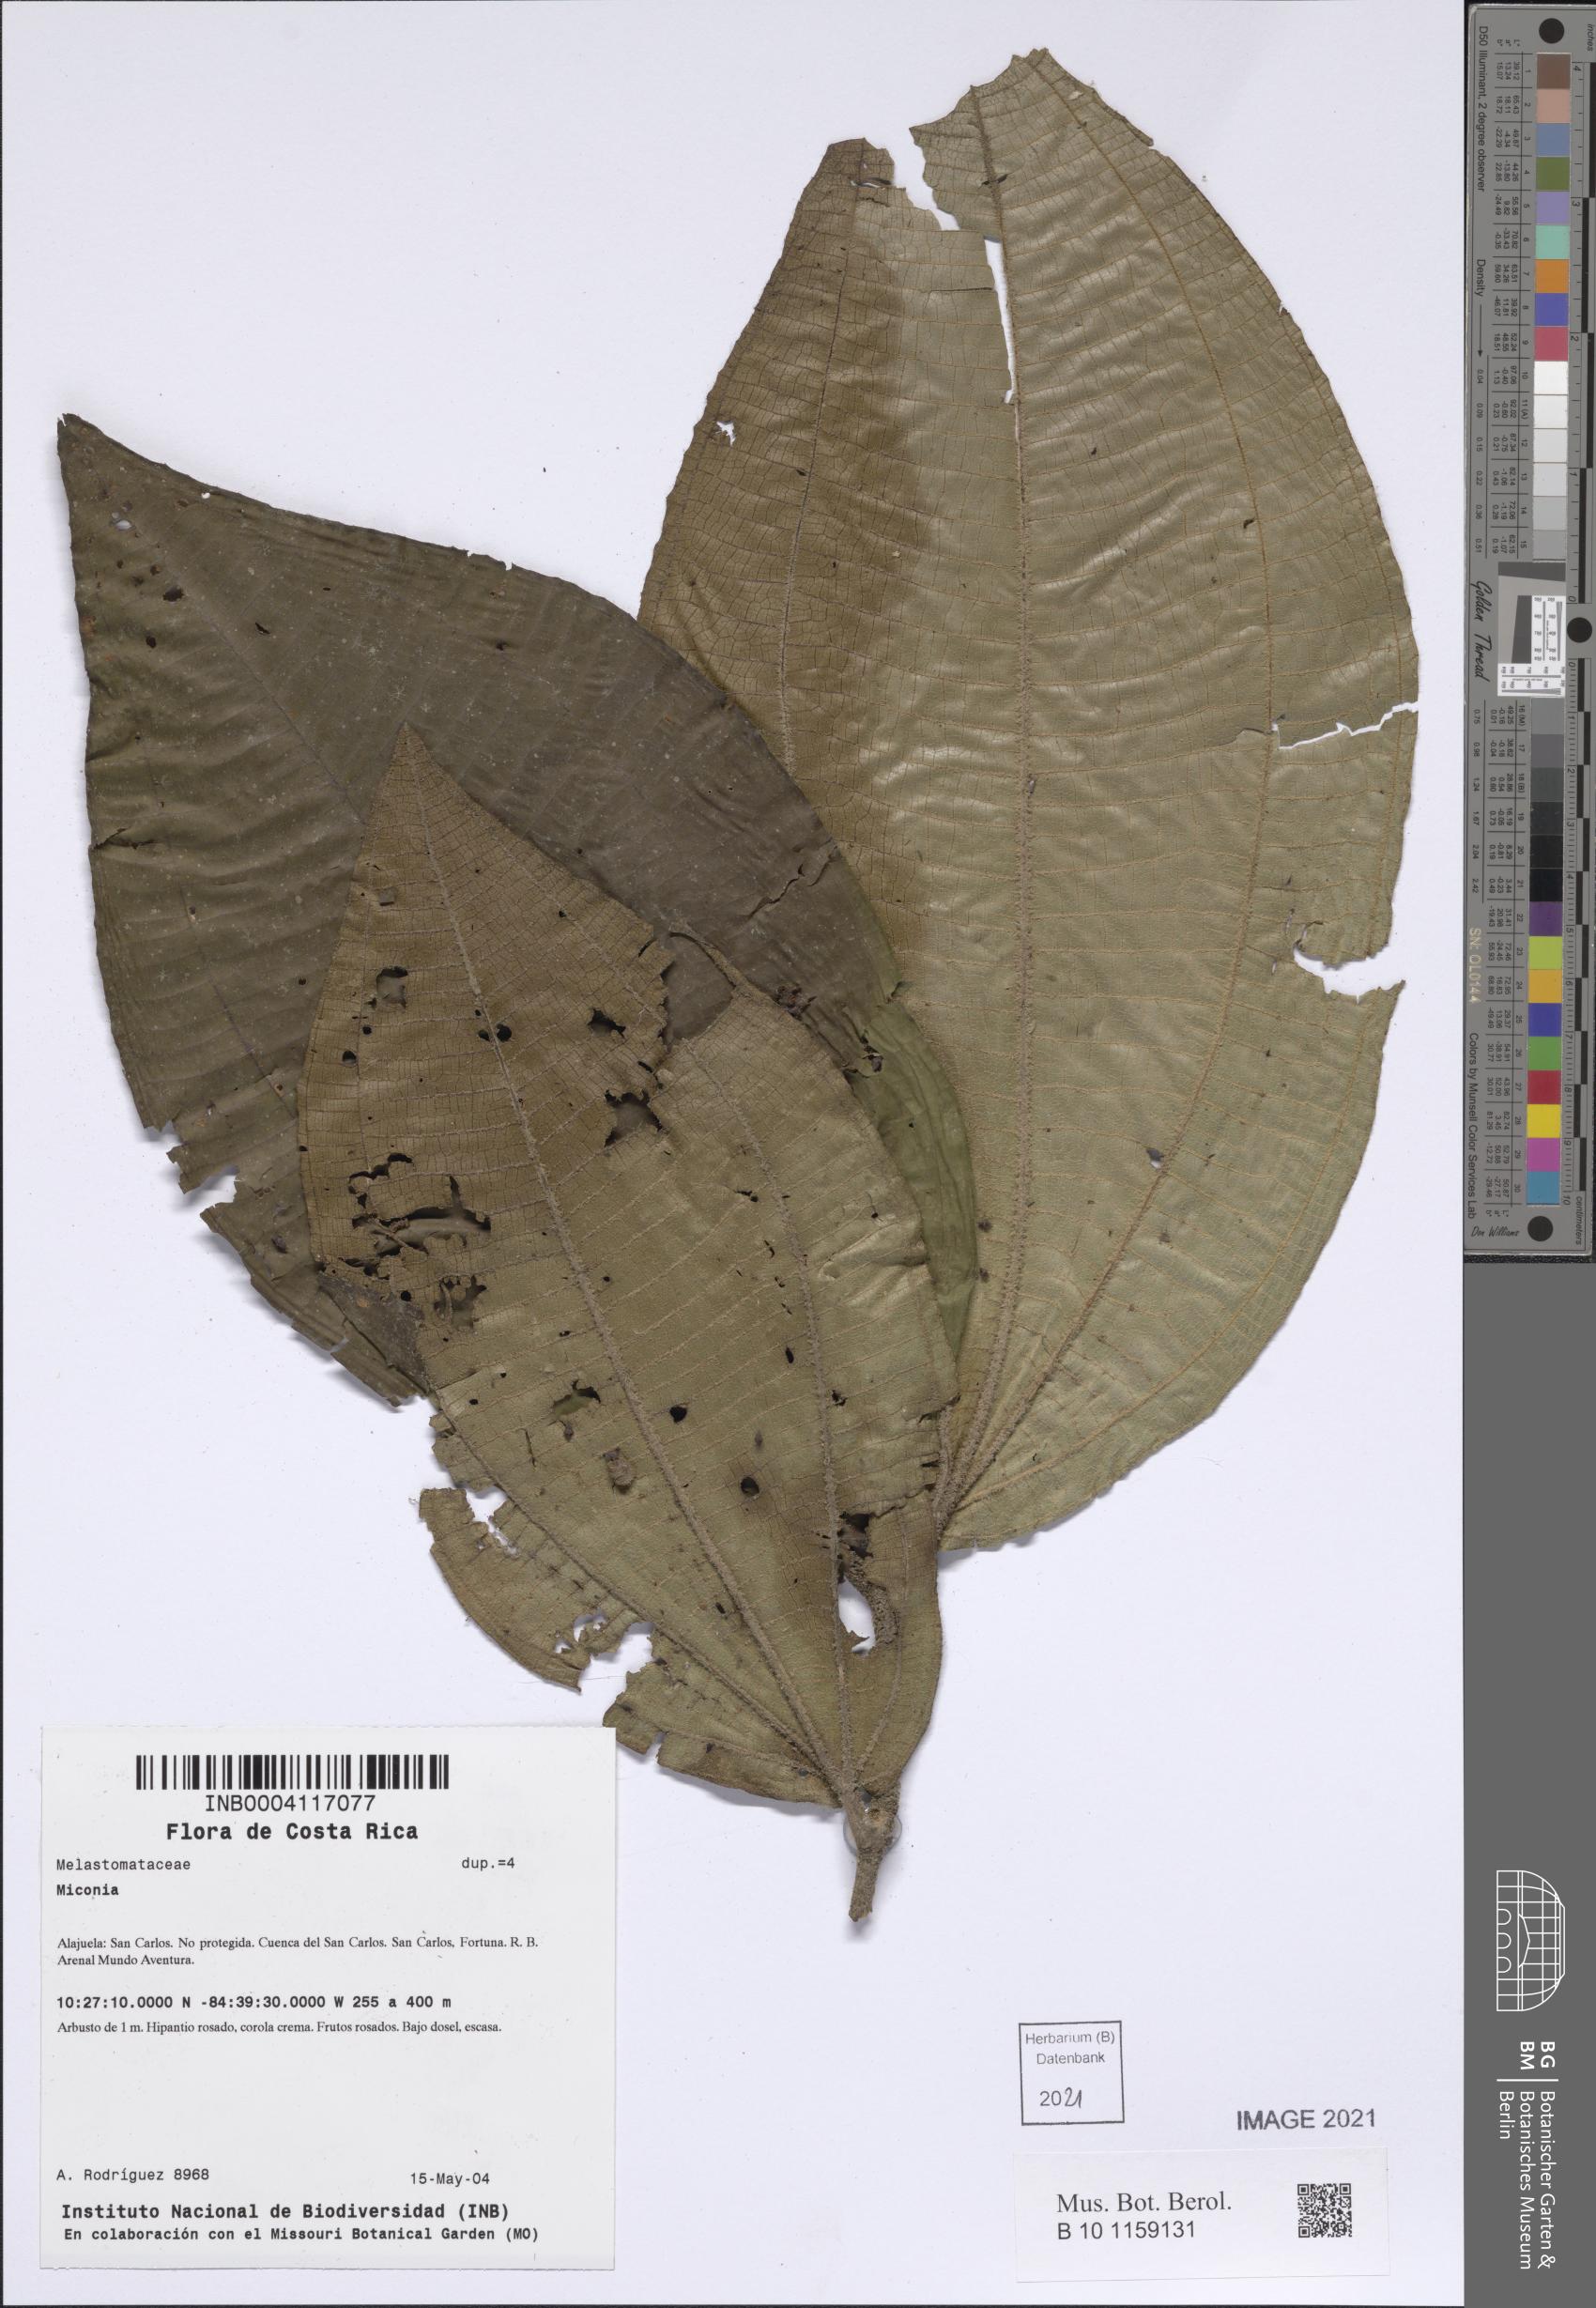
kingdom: Plantae
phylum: Tracheophyta
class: Magnoliopsida
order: Myrtales
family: Melastomataceae
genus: Miconia
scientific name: Miconia
